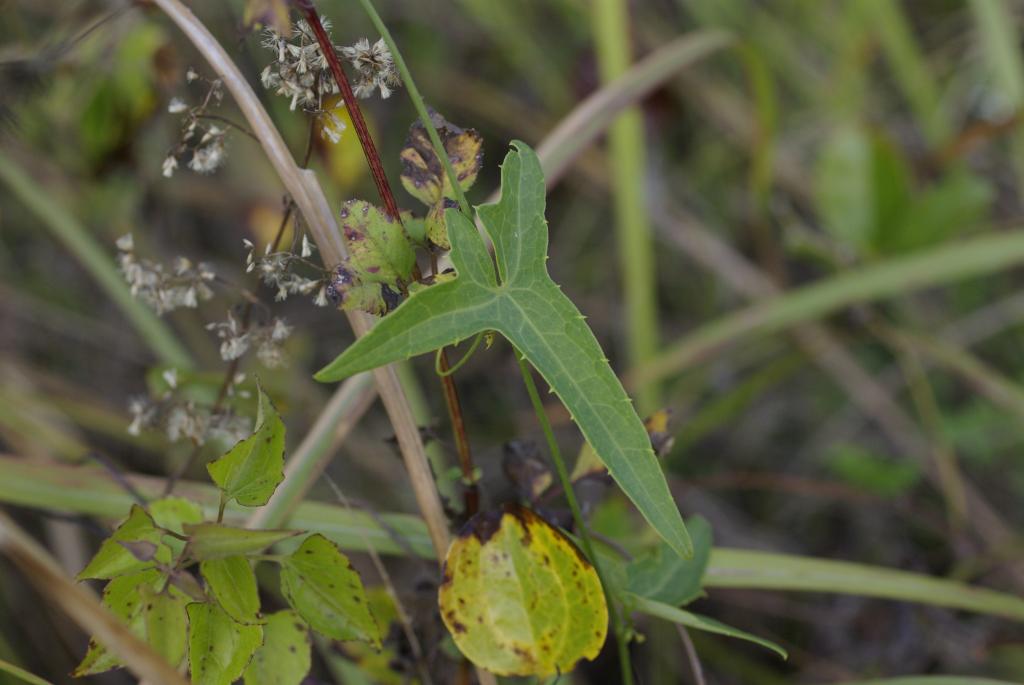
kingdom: Plantae
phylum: Tracheophyta
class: Magnoliopsida
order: Cucurbitales
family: Cucurbitaceae
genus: Solena
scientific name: Solena amplexicaulis
